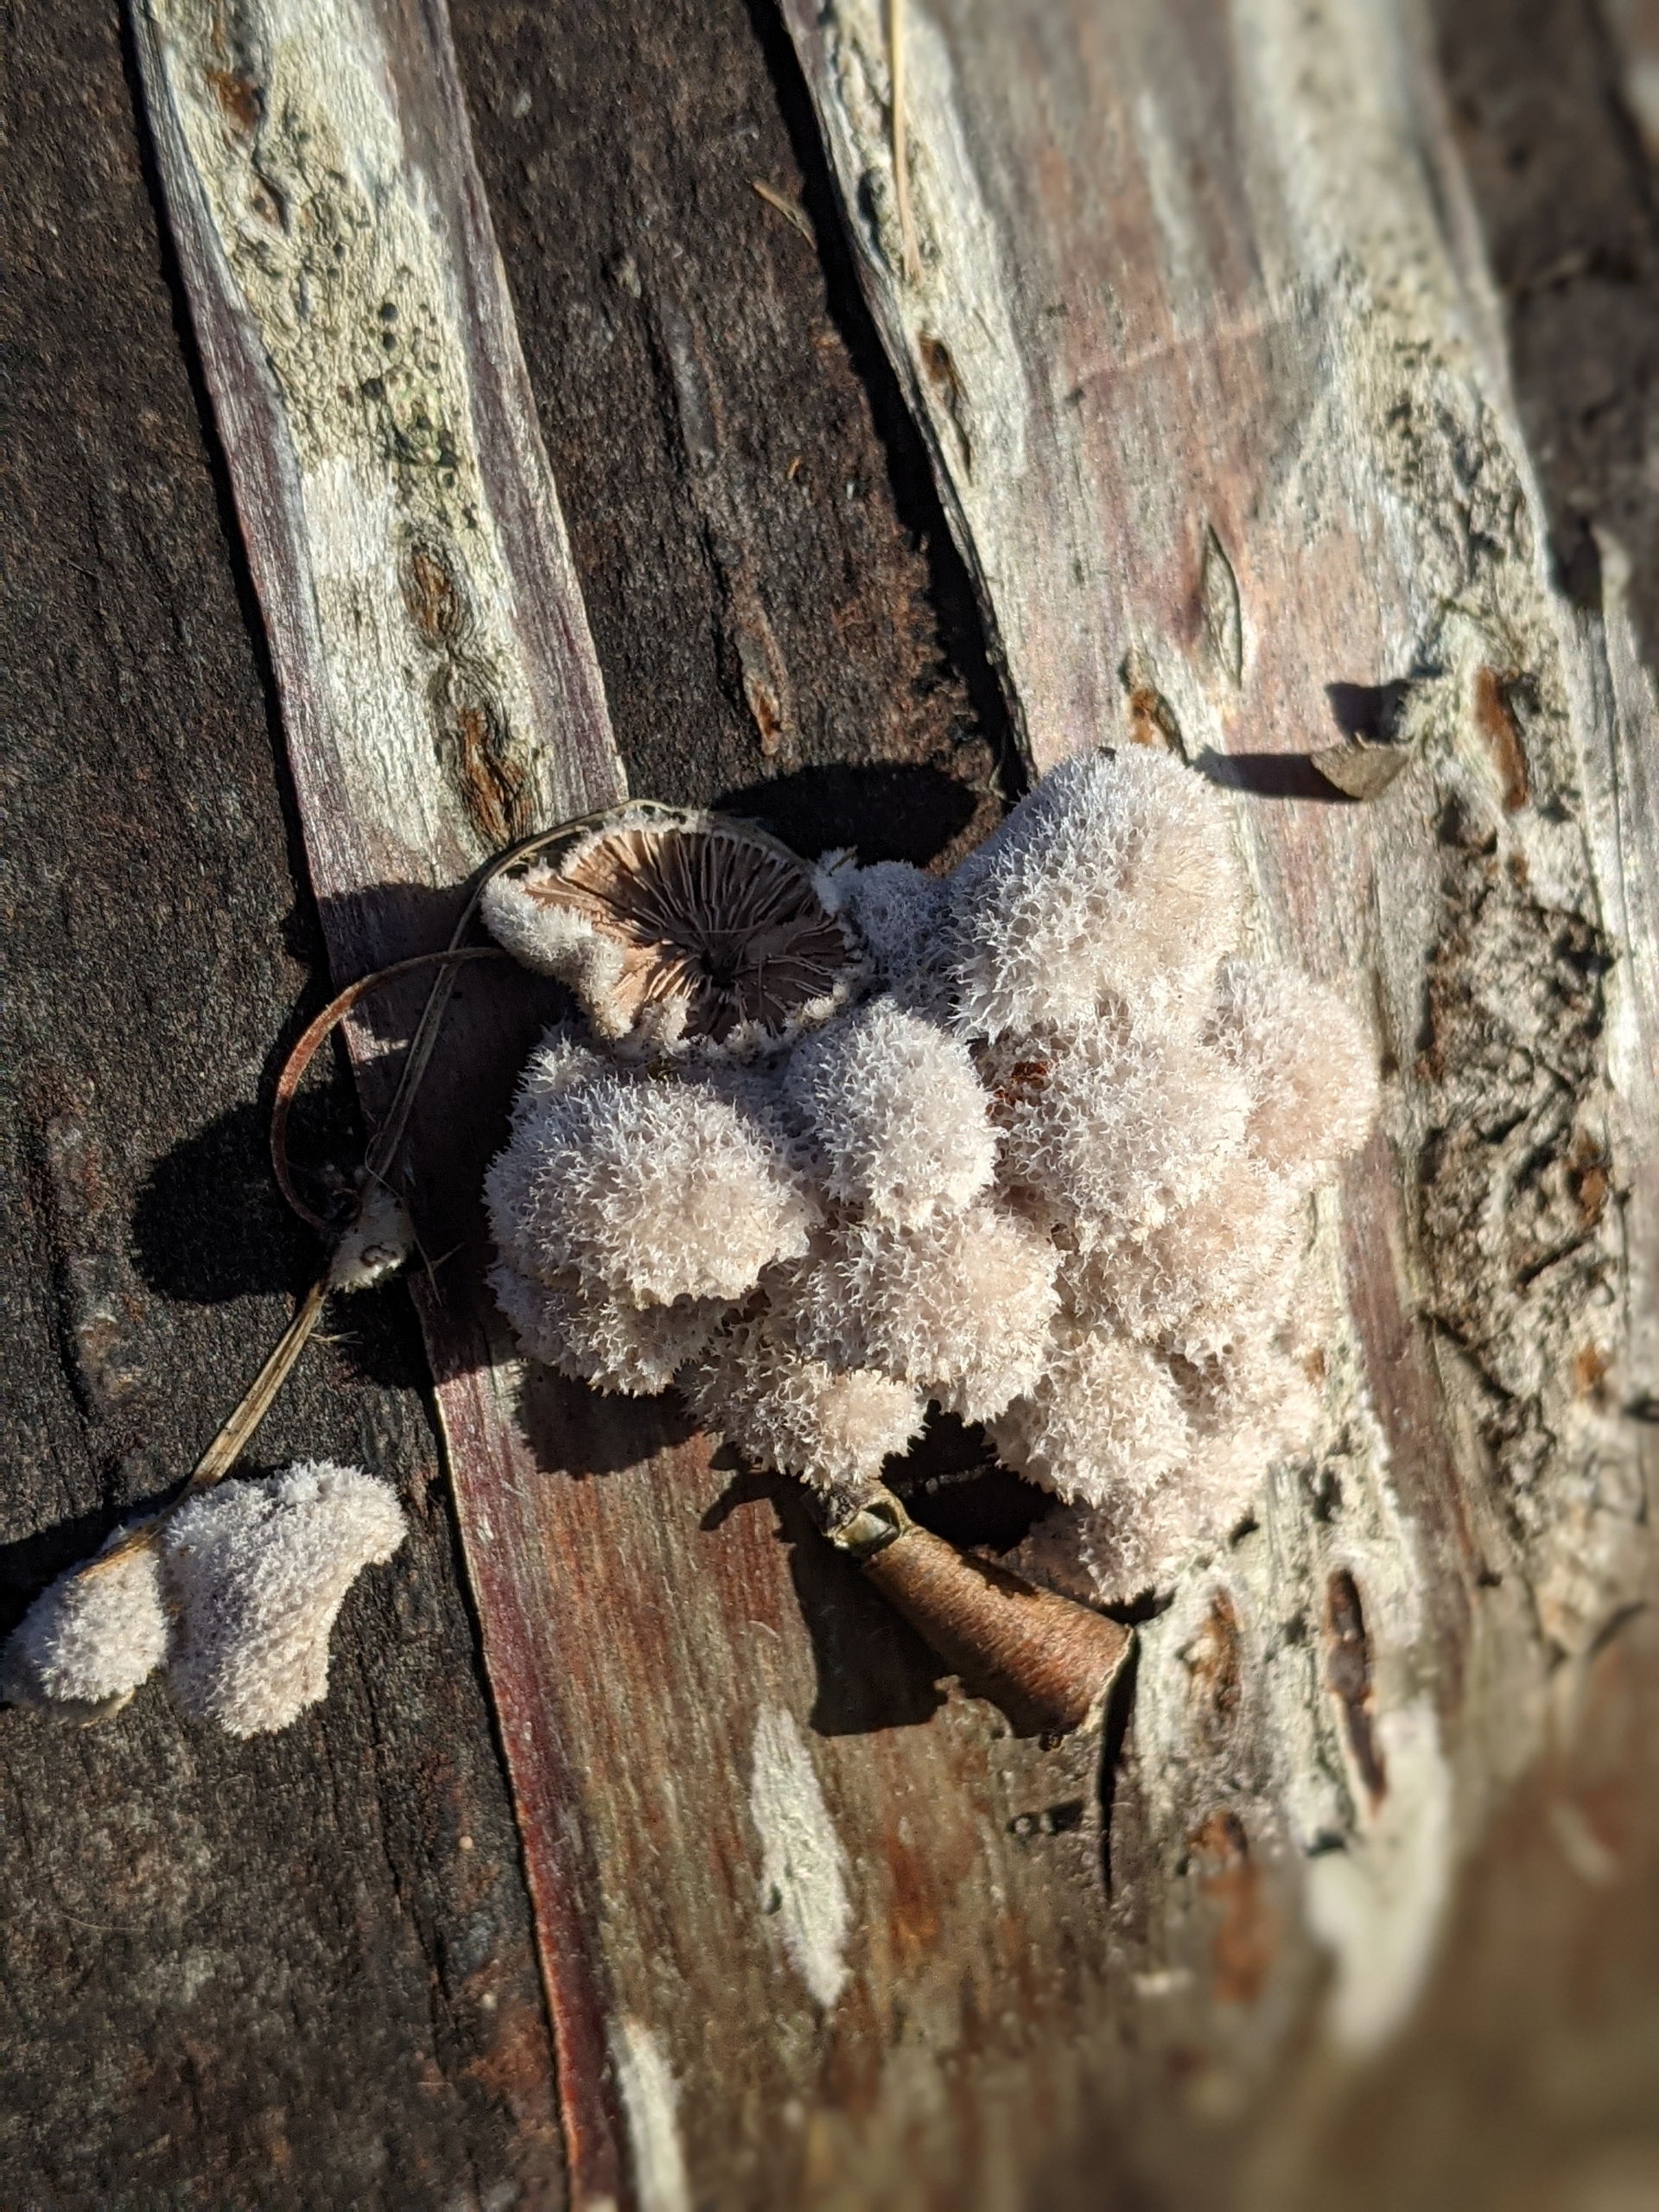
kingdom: Fungi
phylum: Basidiomycota
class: Agaricomycetes
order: Agaricales
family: Schizophyllaceae
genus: Schizophyllum
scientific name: Schizophyllum commune
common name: Kløvblad
